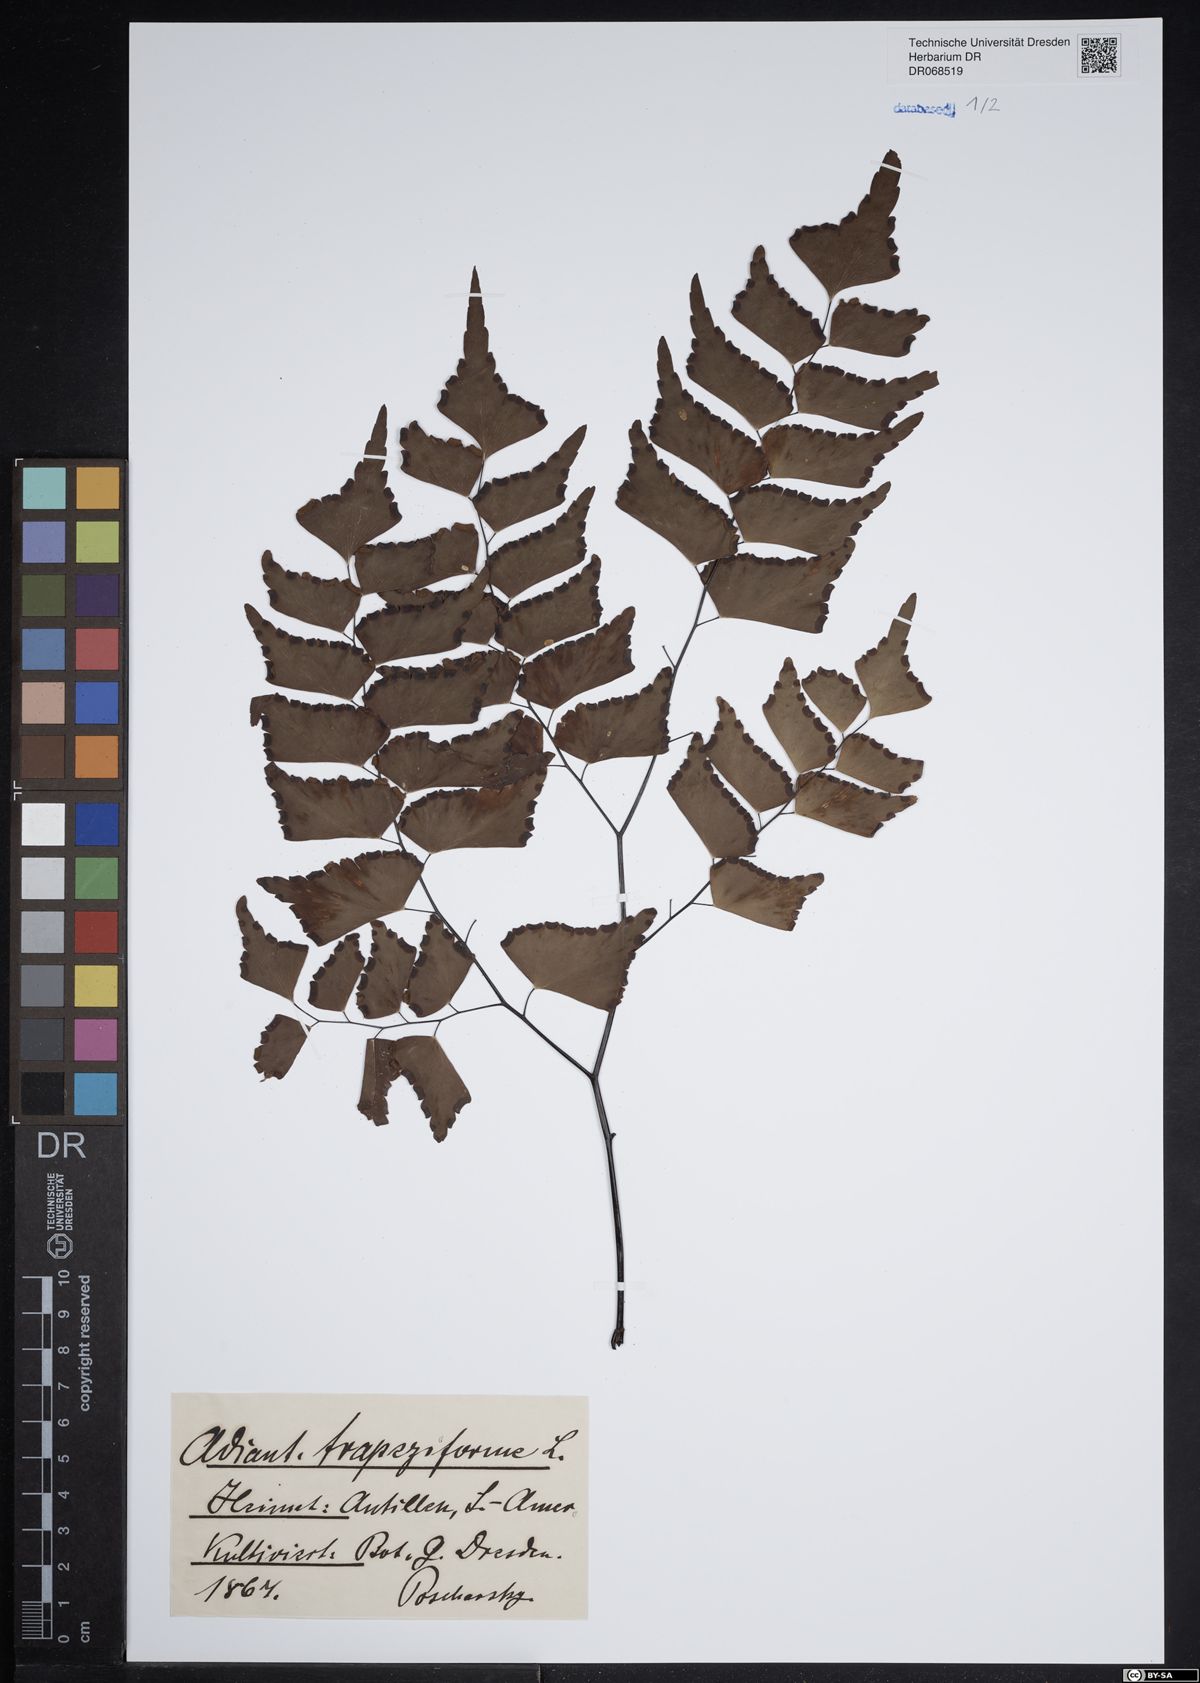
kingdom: Plantae
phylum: Tracheophyta
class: Polypodiopsida
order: Polypodiales
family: Pteridaceae
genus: Adiantum
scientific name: Adiantum trapeziforme
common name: Diamond maidenhair
